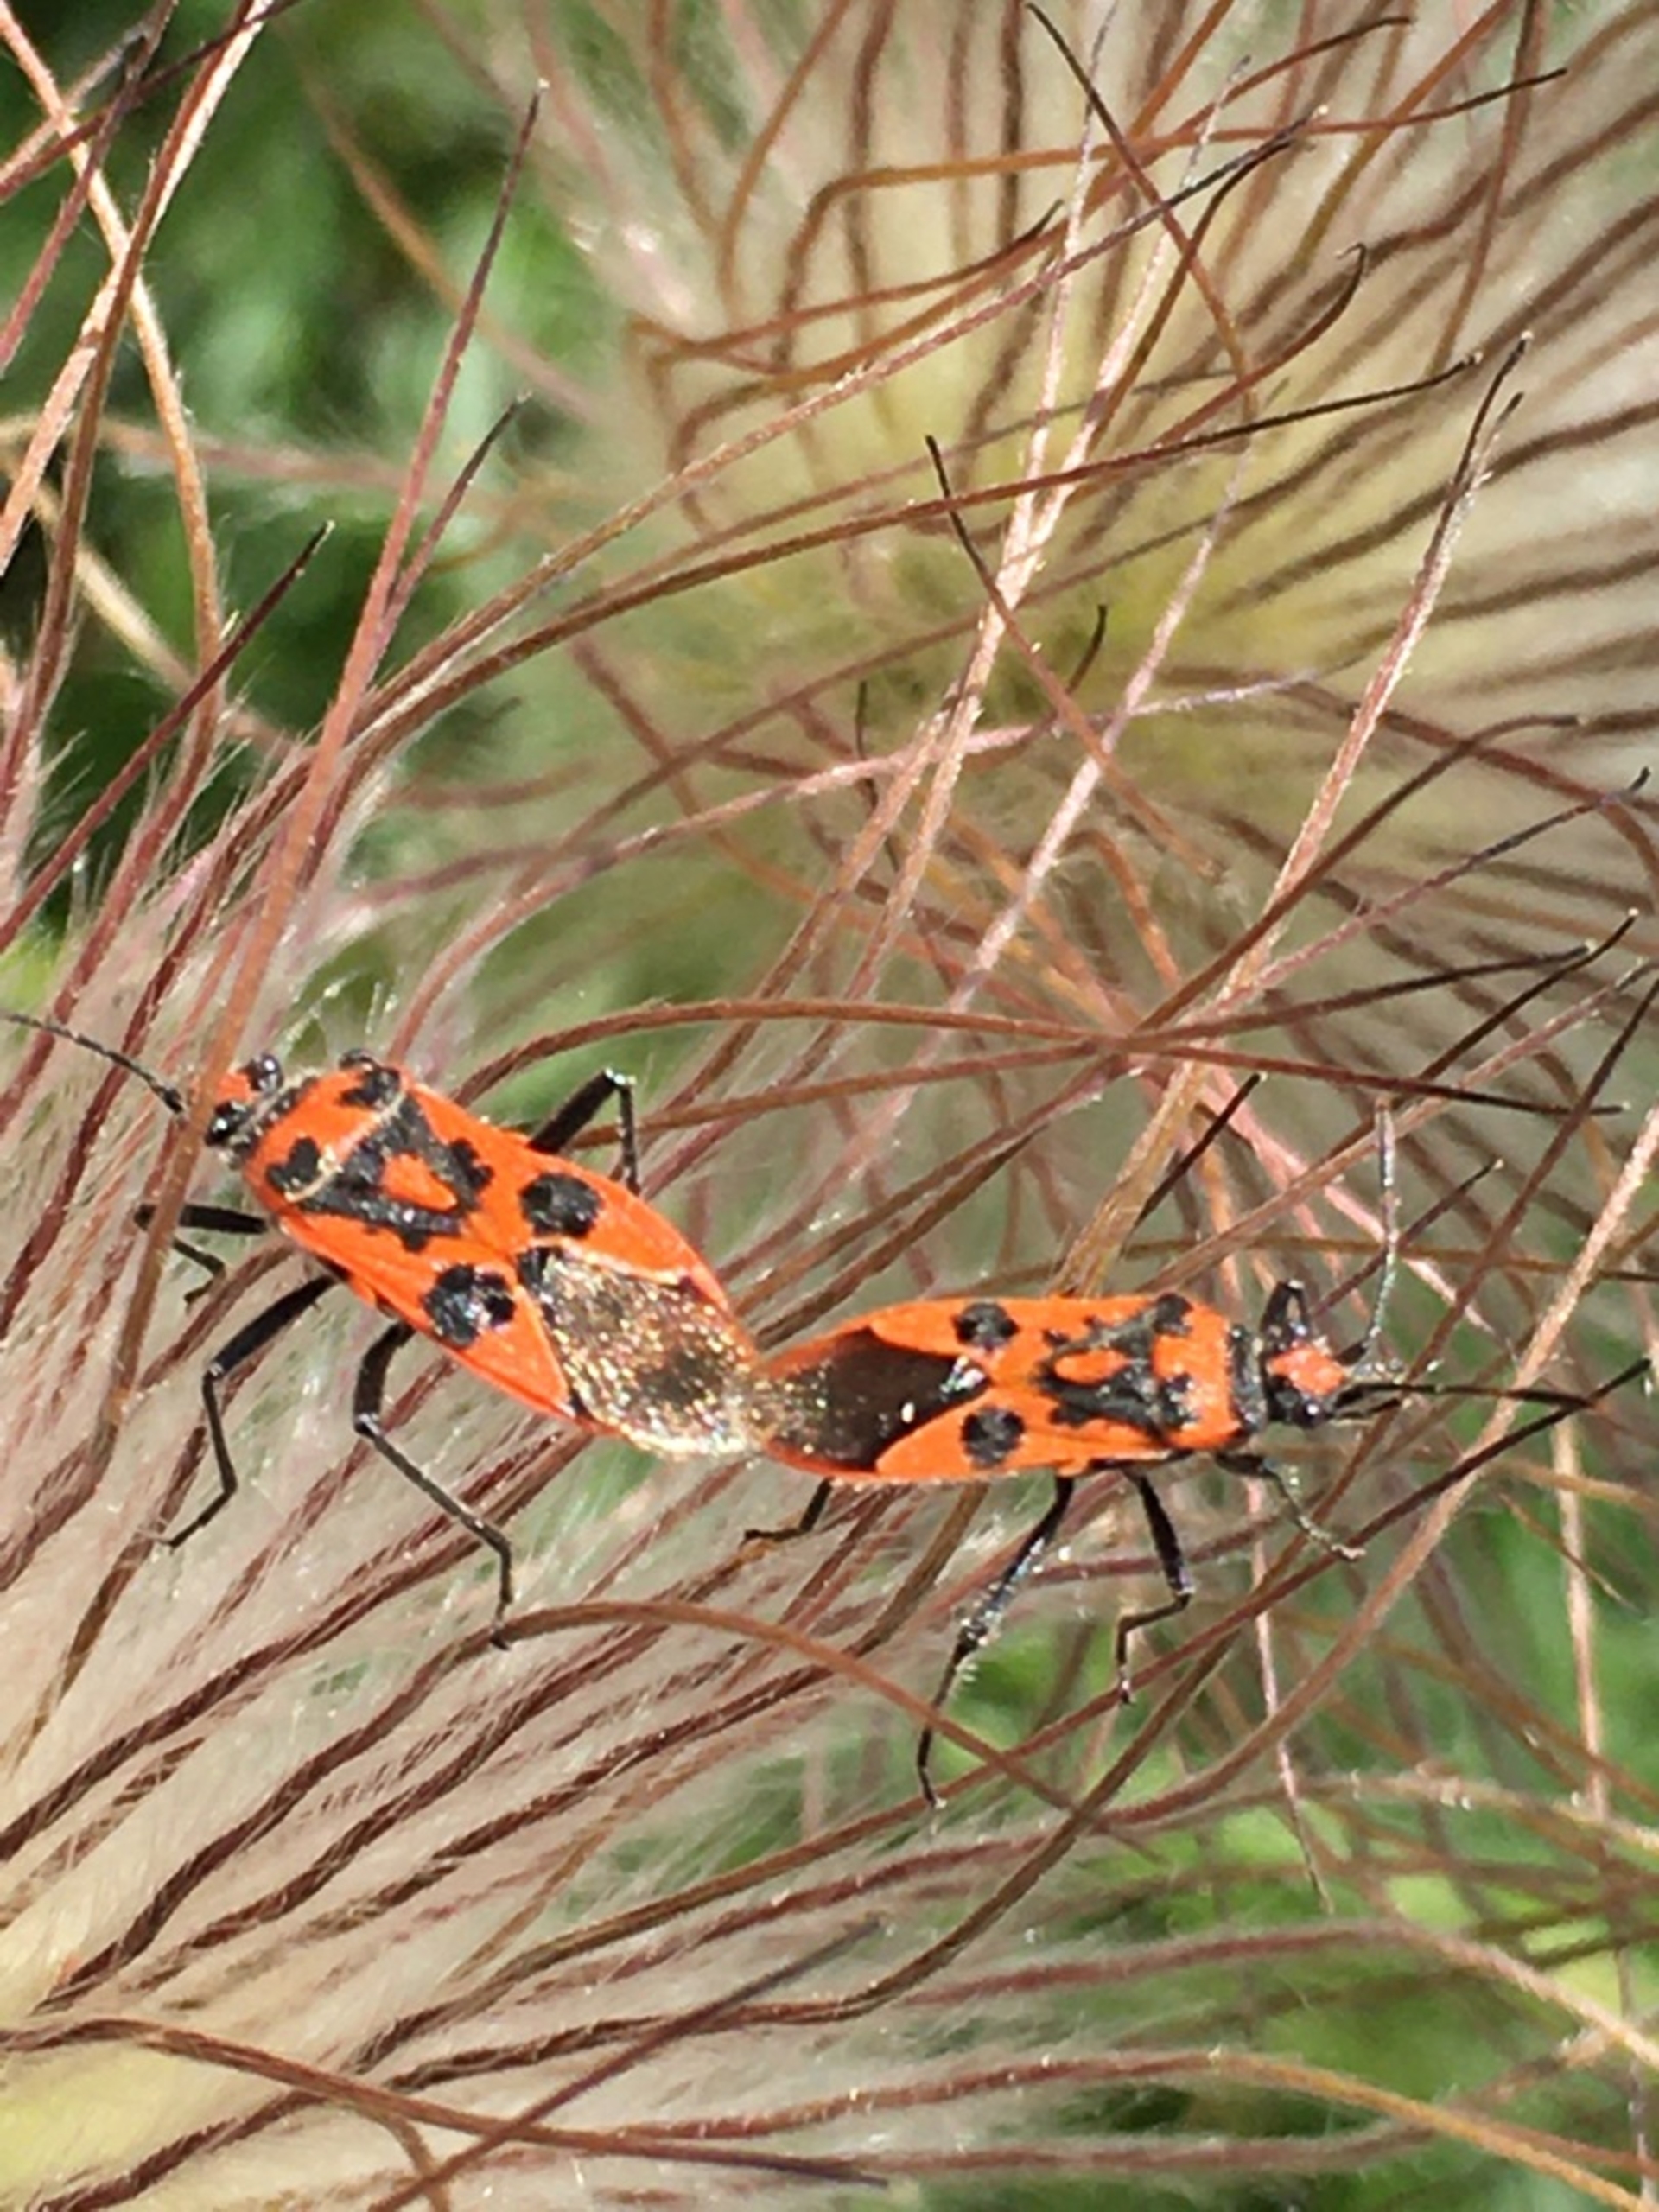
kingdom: Animalia
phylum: Arthropoda
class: Insecta
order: Hemiptera
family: Rhopalidae
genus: Corizus
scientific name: Corizus hyoscyami
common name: Rød kanttæge
